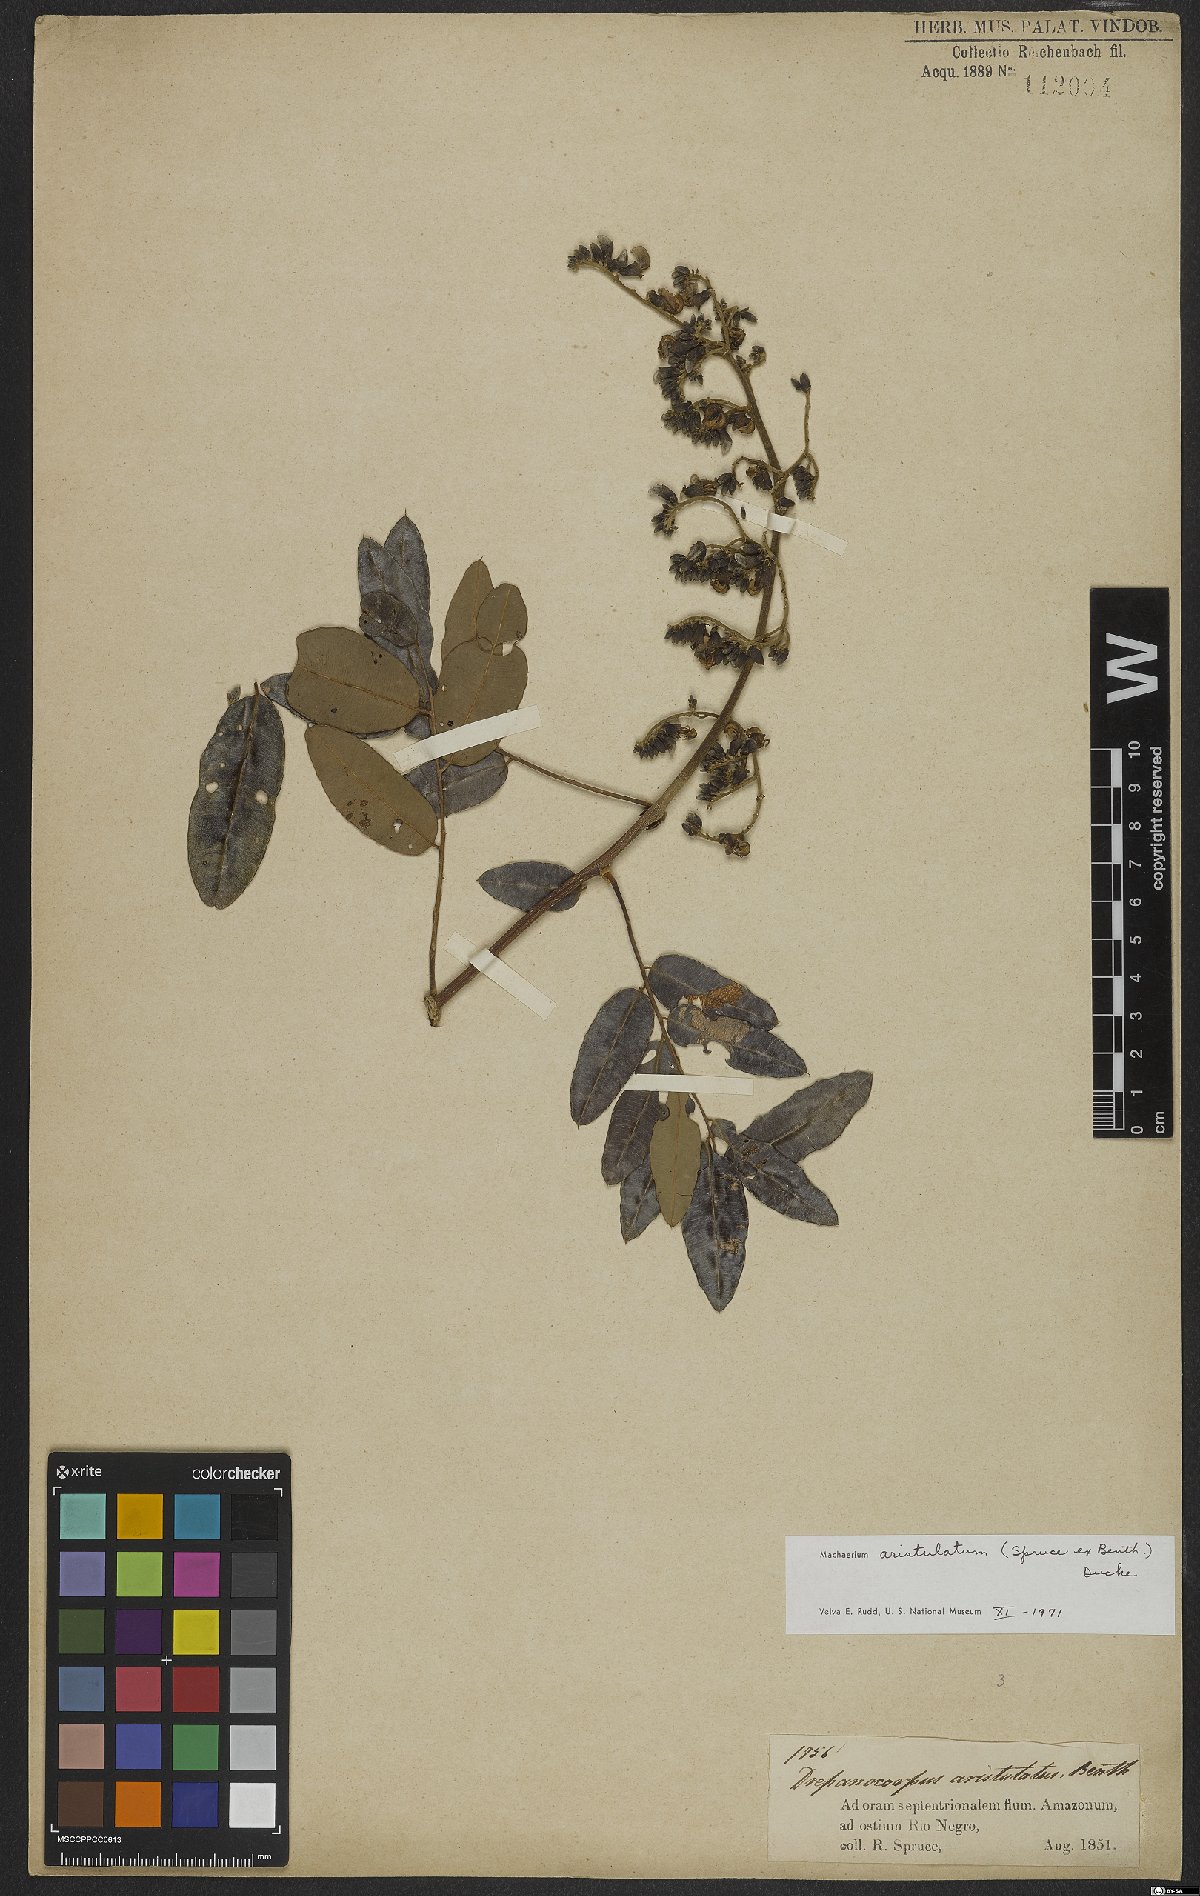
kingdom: Plantae
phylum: Tracheophyta
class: Magnoliopsida
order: Fabales
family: Fabaceae
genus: Machaerium
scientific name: Machaerium aristulatum
